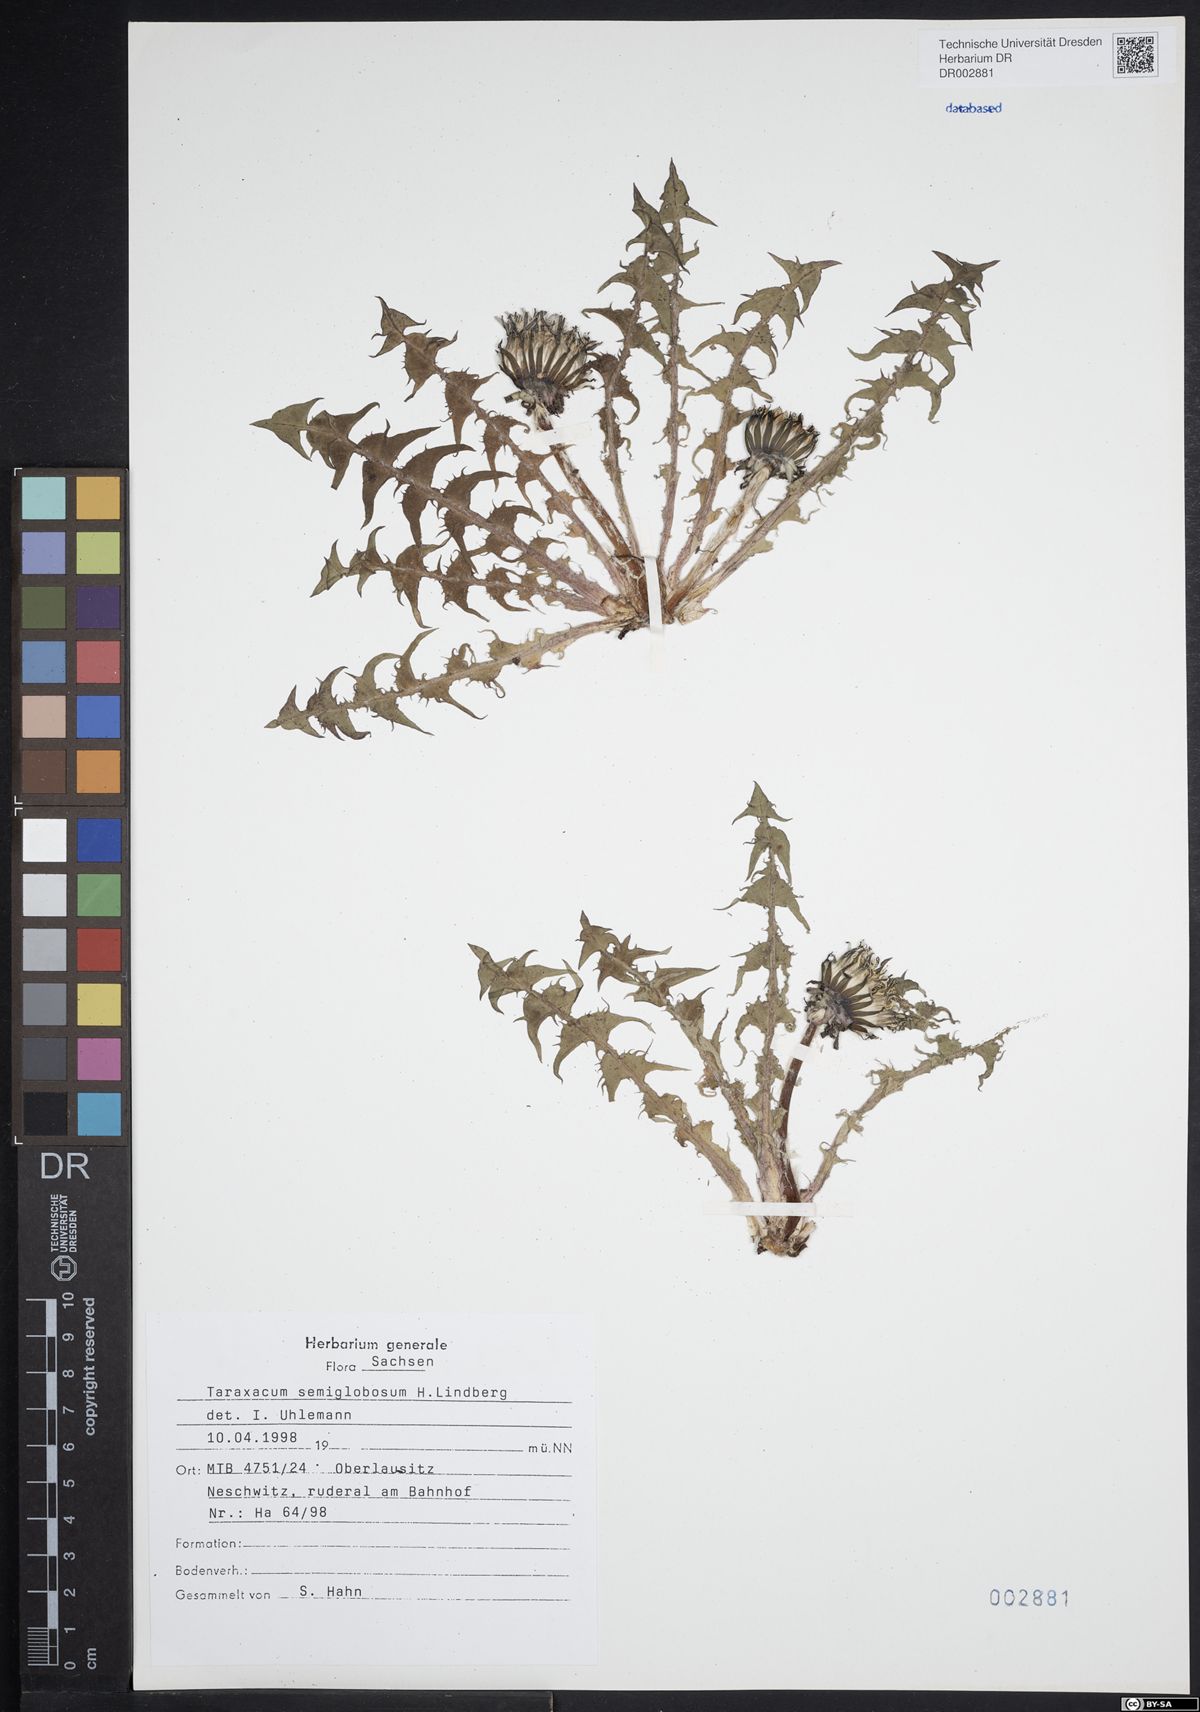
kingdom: Plantae
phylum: Tracheophyta
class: Magnoliopsida
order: Asterales
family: Asteraceae
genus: Taraxacum
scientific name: Taraxacum semiglobosum
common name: Hairy-ribbed dandelion
